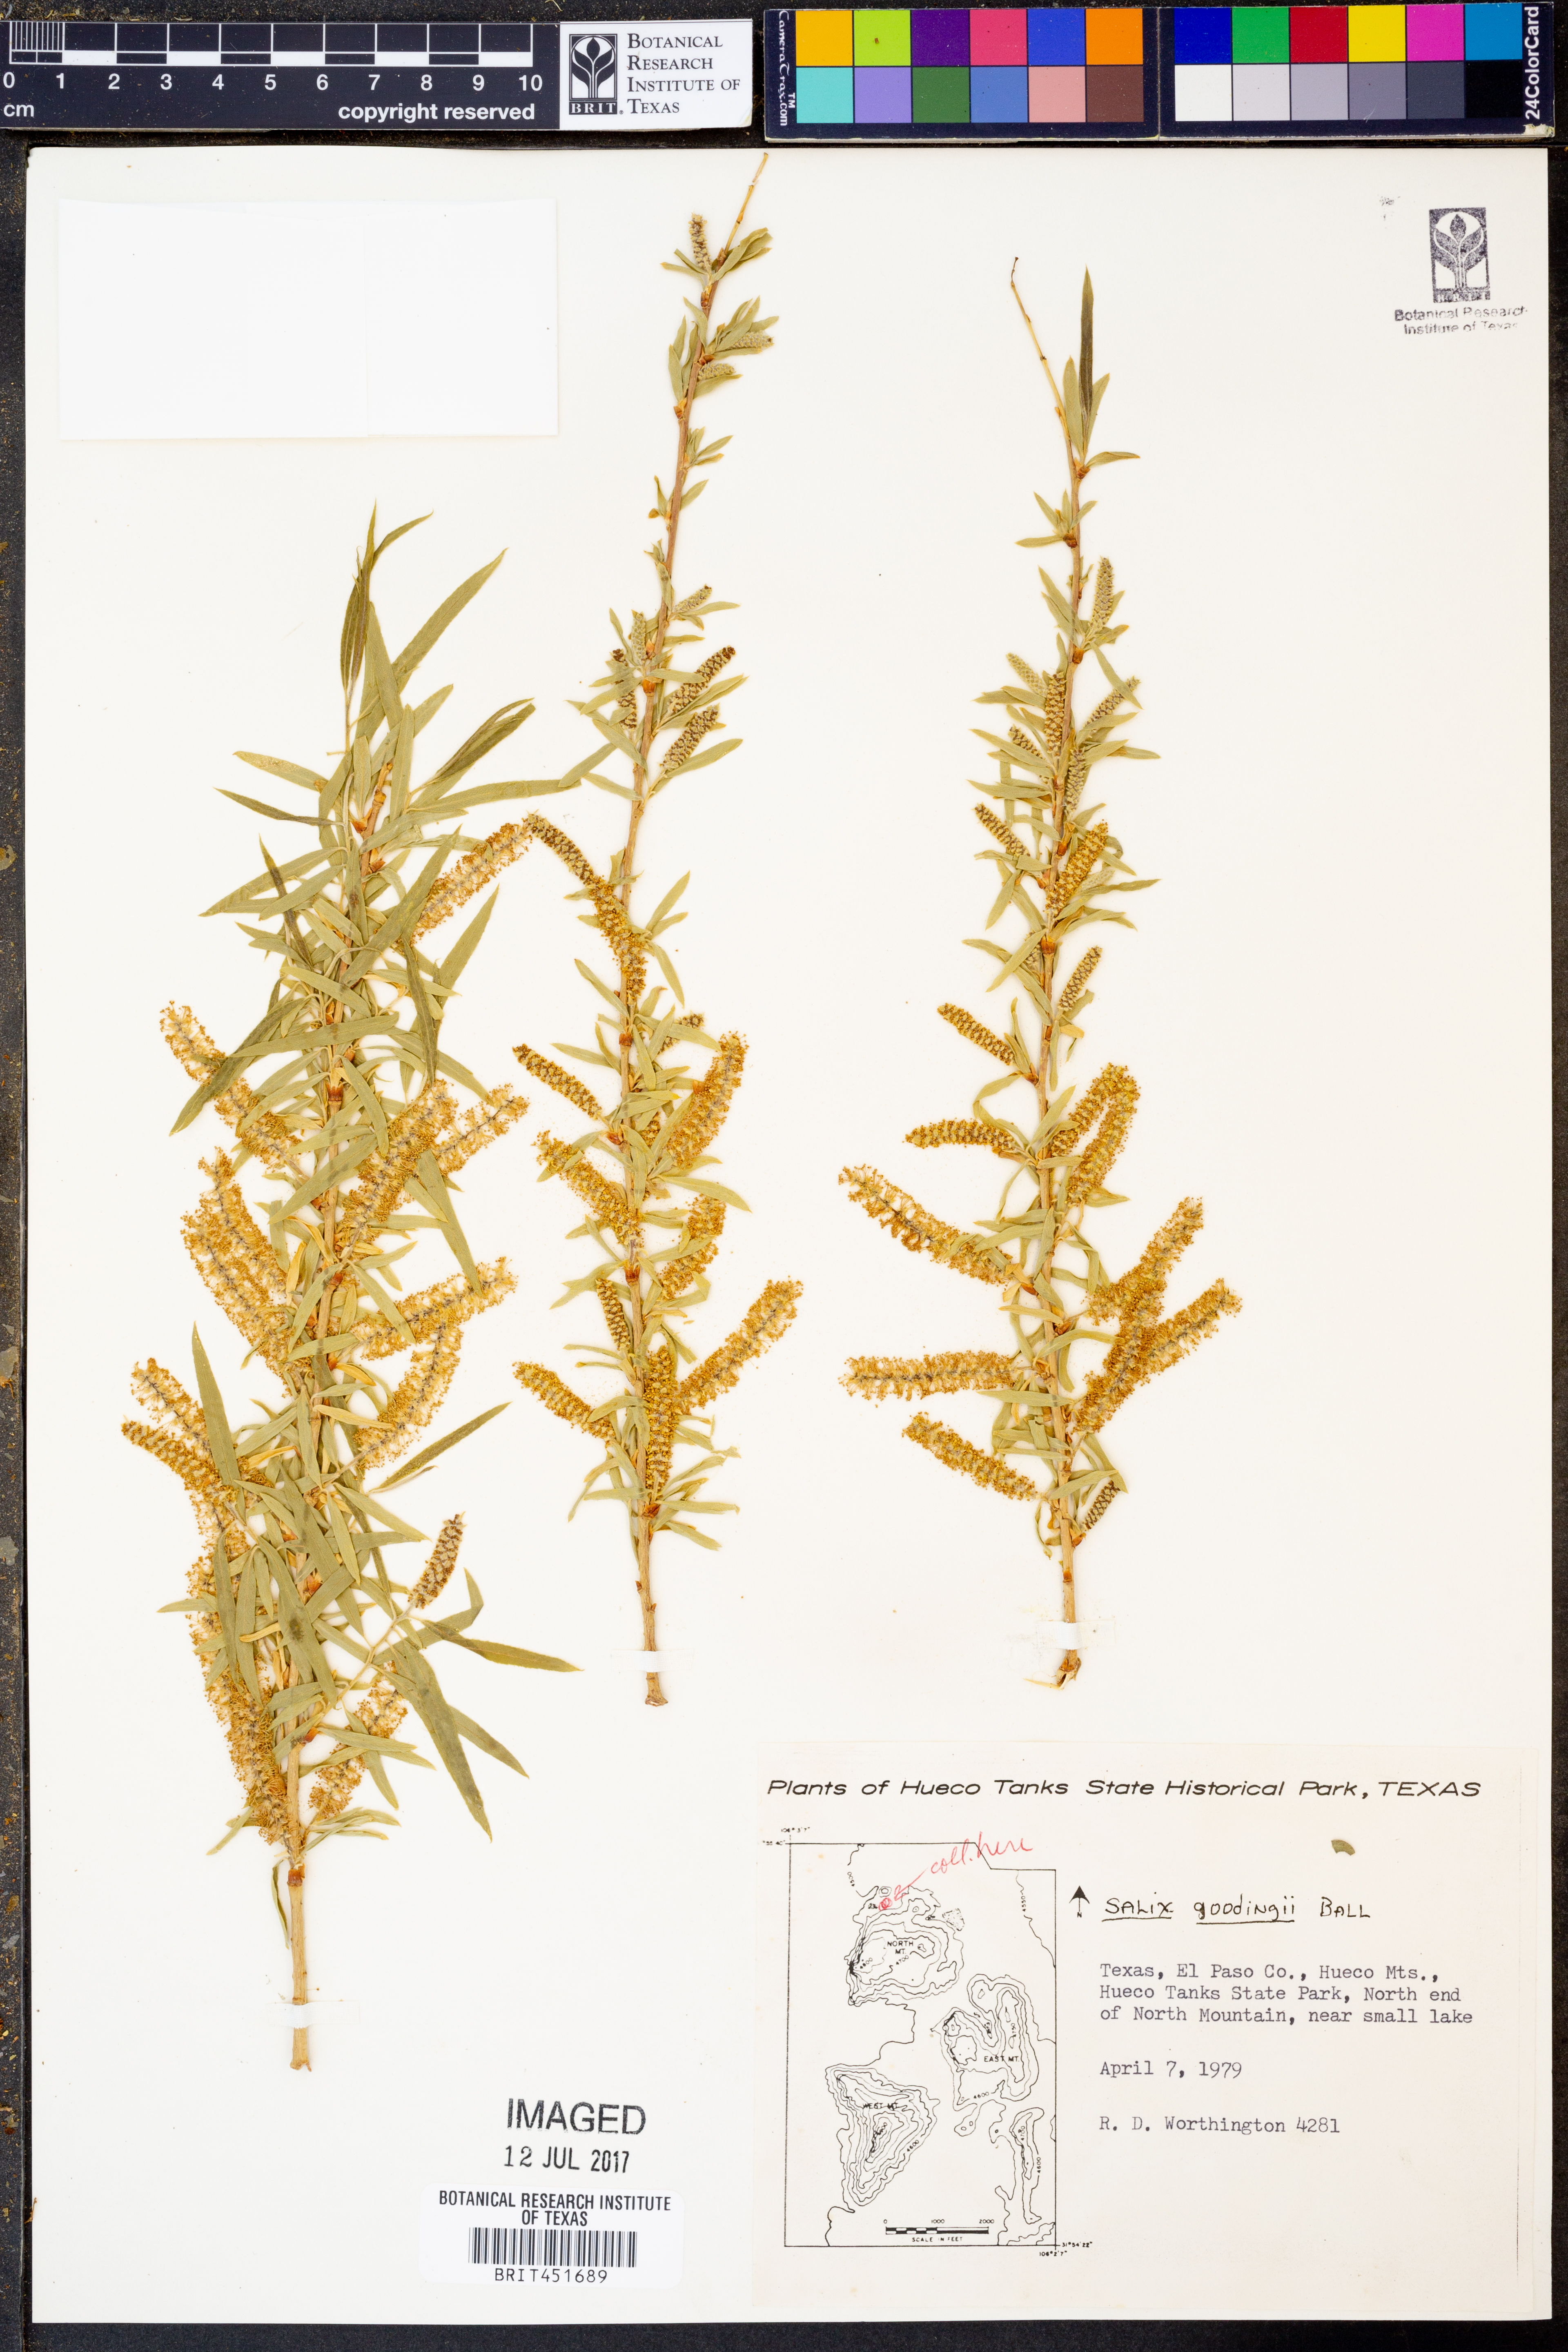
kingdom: Plantae
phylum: Tracheophyta
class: Magnoliopsida
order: Malpighiales
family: Salicaceae
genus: Salix
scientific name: Salix gooddingii
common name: Goodding's willow
